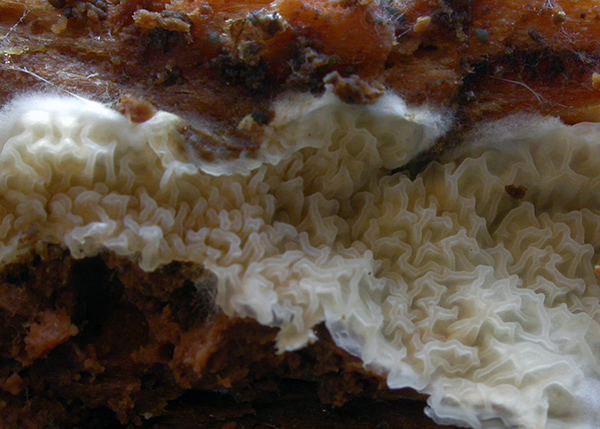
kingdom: Fungi
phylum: Basidiomycota
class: Agaricomycetes
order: Boletales
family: Hygrophoropsidaceae
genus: Leucogyrophana
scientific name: Leucogyrophana sororia
